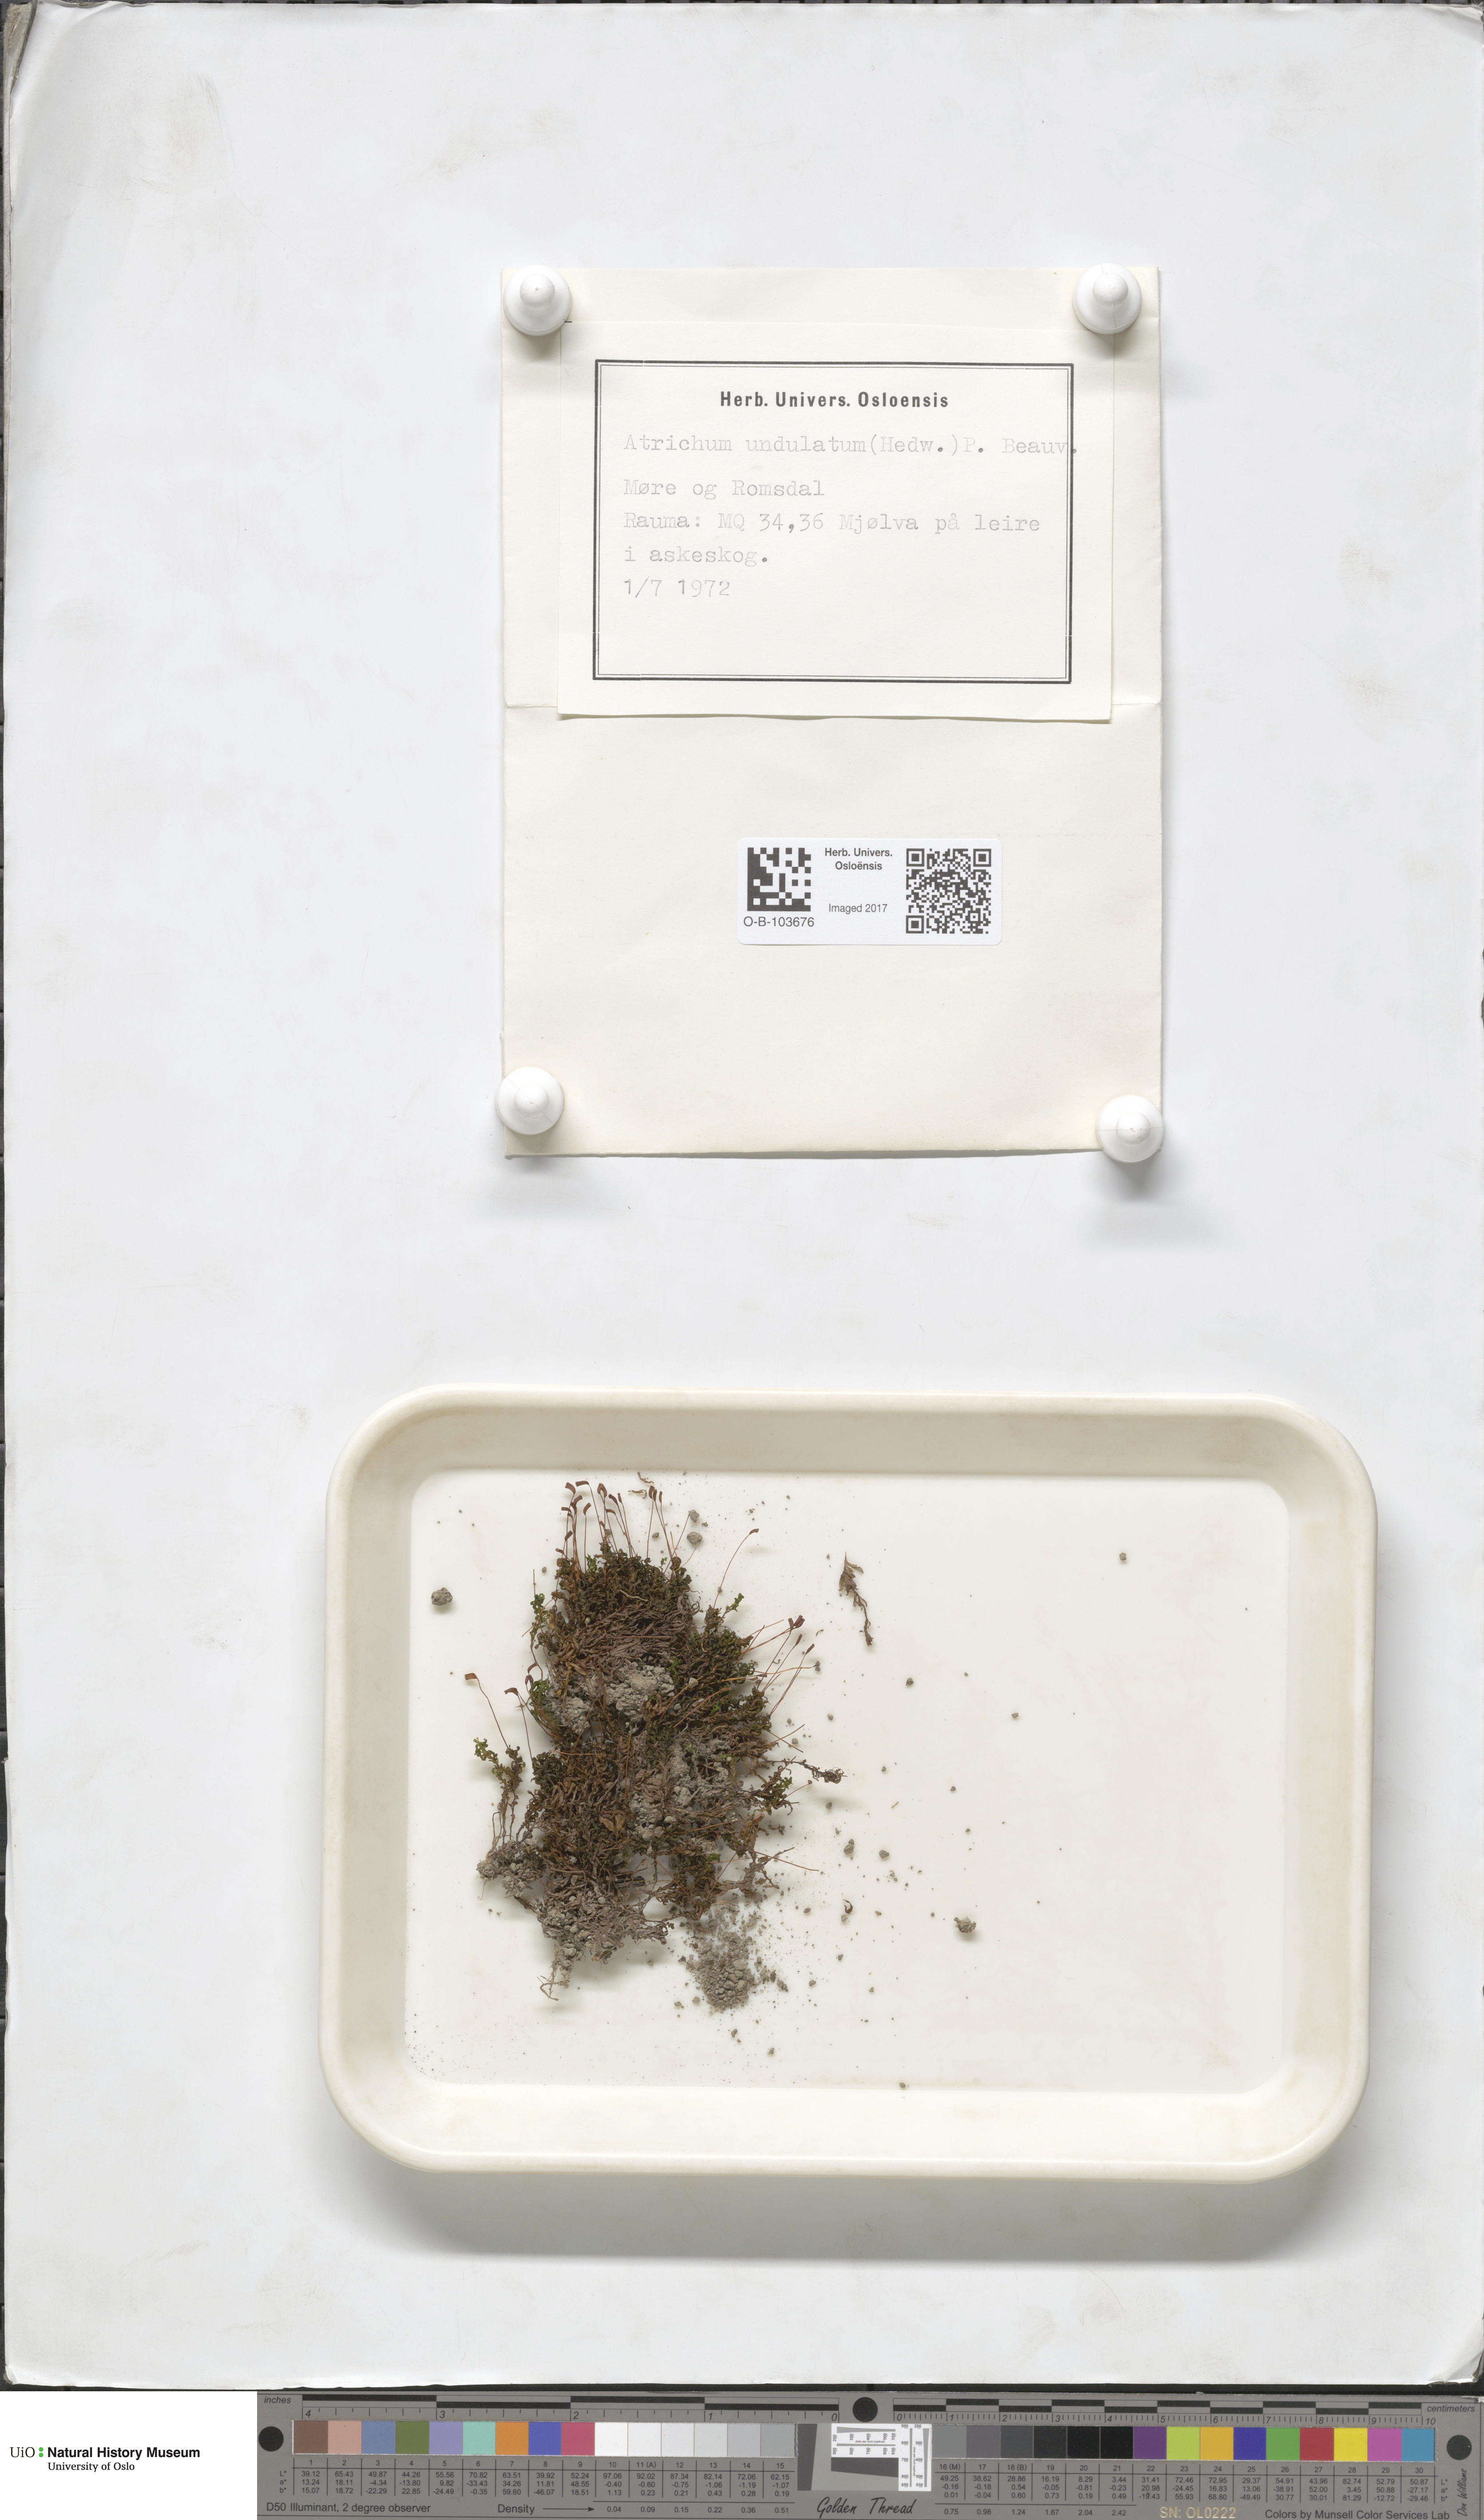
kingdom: Plantae
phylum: Bryophyta
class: Polytrichopsida
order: Polytrichales
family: Polytrichaceae
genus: Atrichum
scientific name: Atrichum undulatum
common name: Common smoothcap
